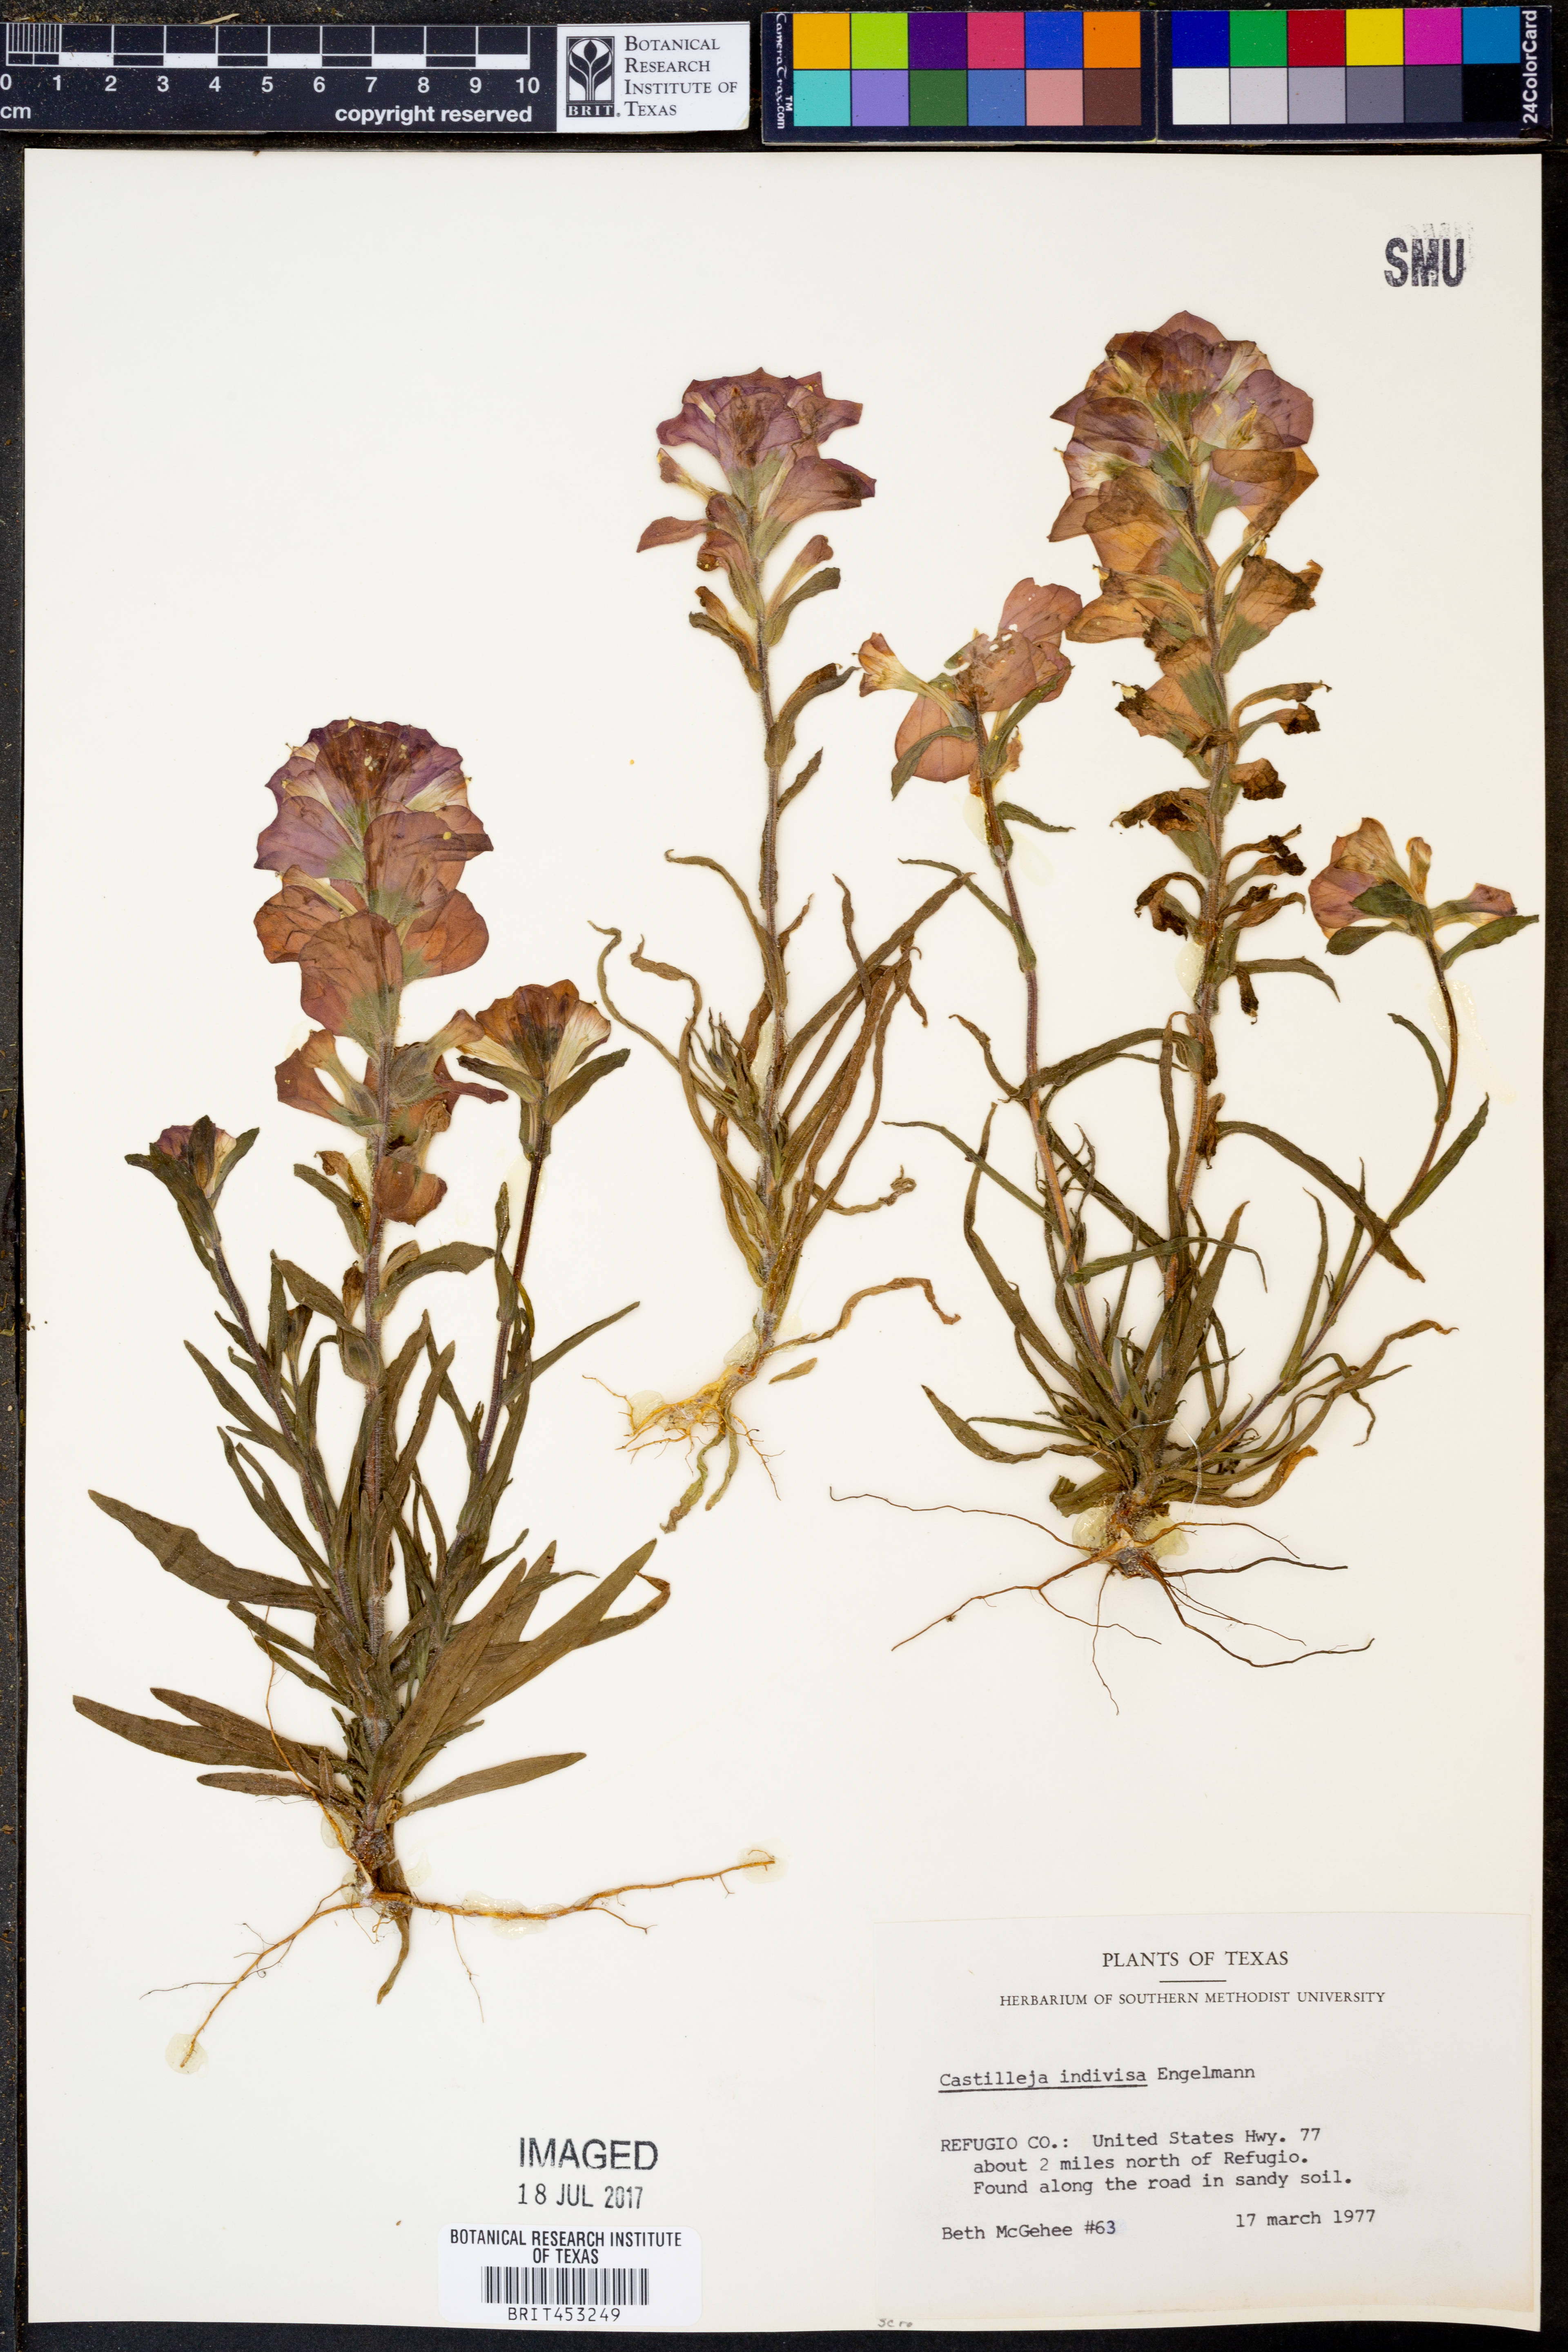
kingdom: Plantae
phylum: Tracheophyta
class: Magnoliopsida
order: Lamiales
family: Orobanchaceae
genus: Castilleja
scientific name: Castilleja indivisa
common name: Texas paintbrush
